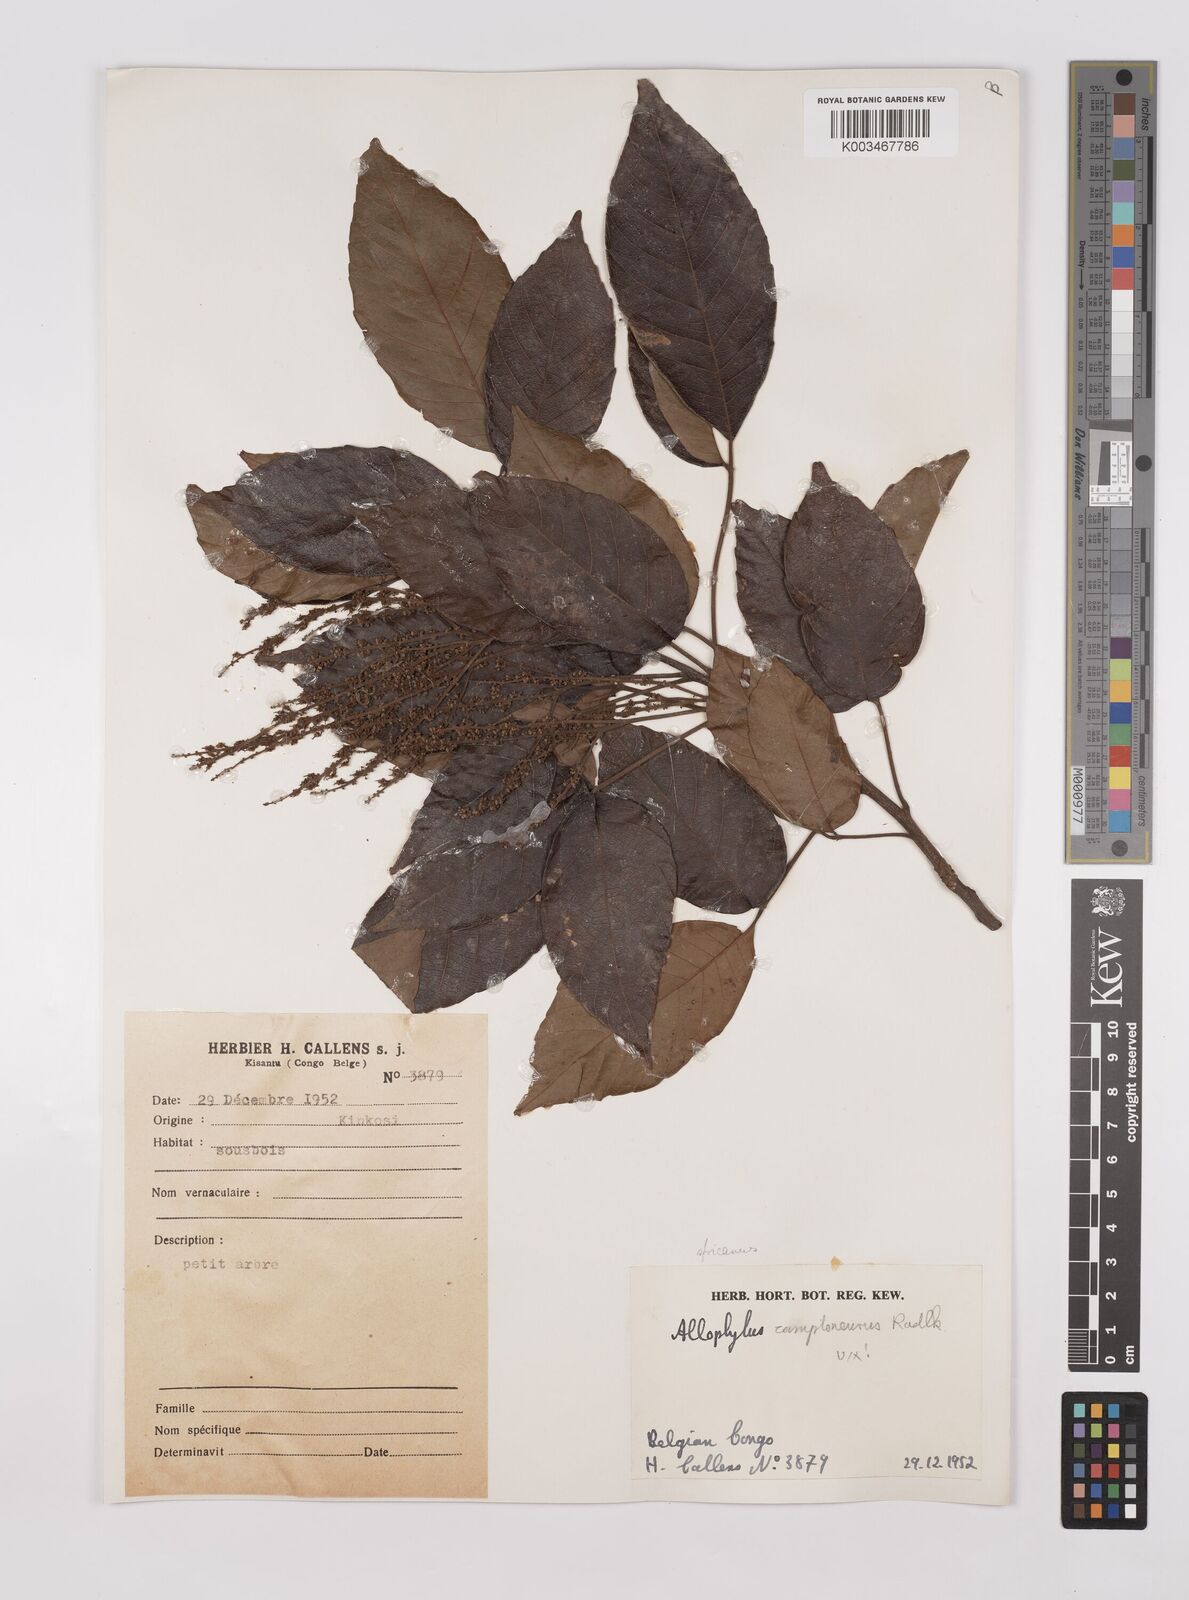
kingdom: Plantae
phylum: Tracheophyta
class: Magnoliopsida
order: Sapindales
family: Sapindaceae
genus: Allophylus
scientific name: Allophylus africanus
